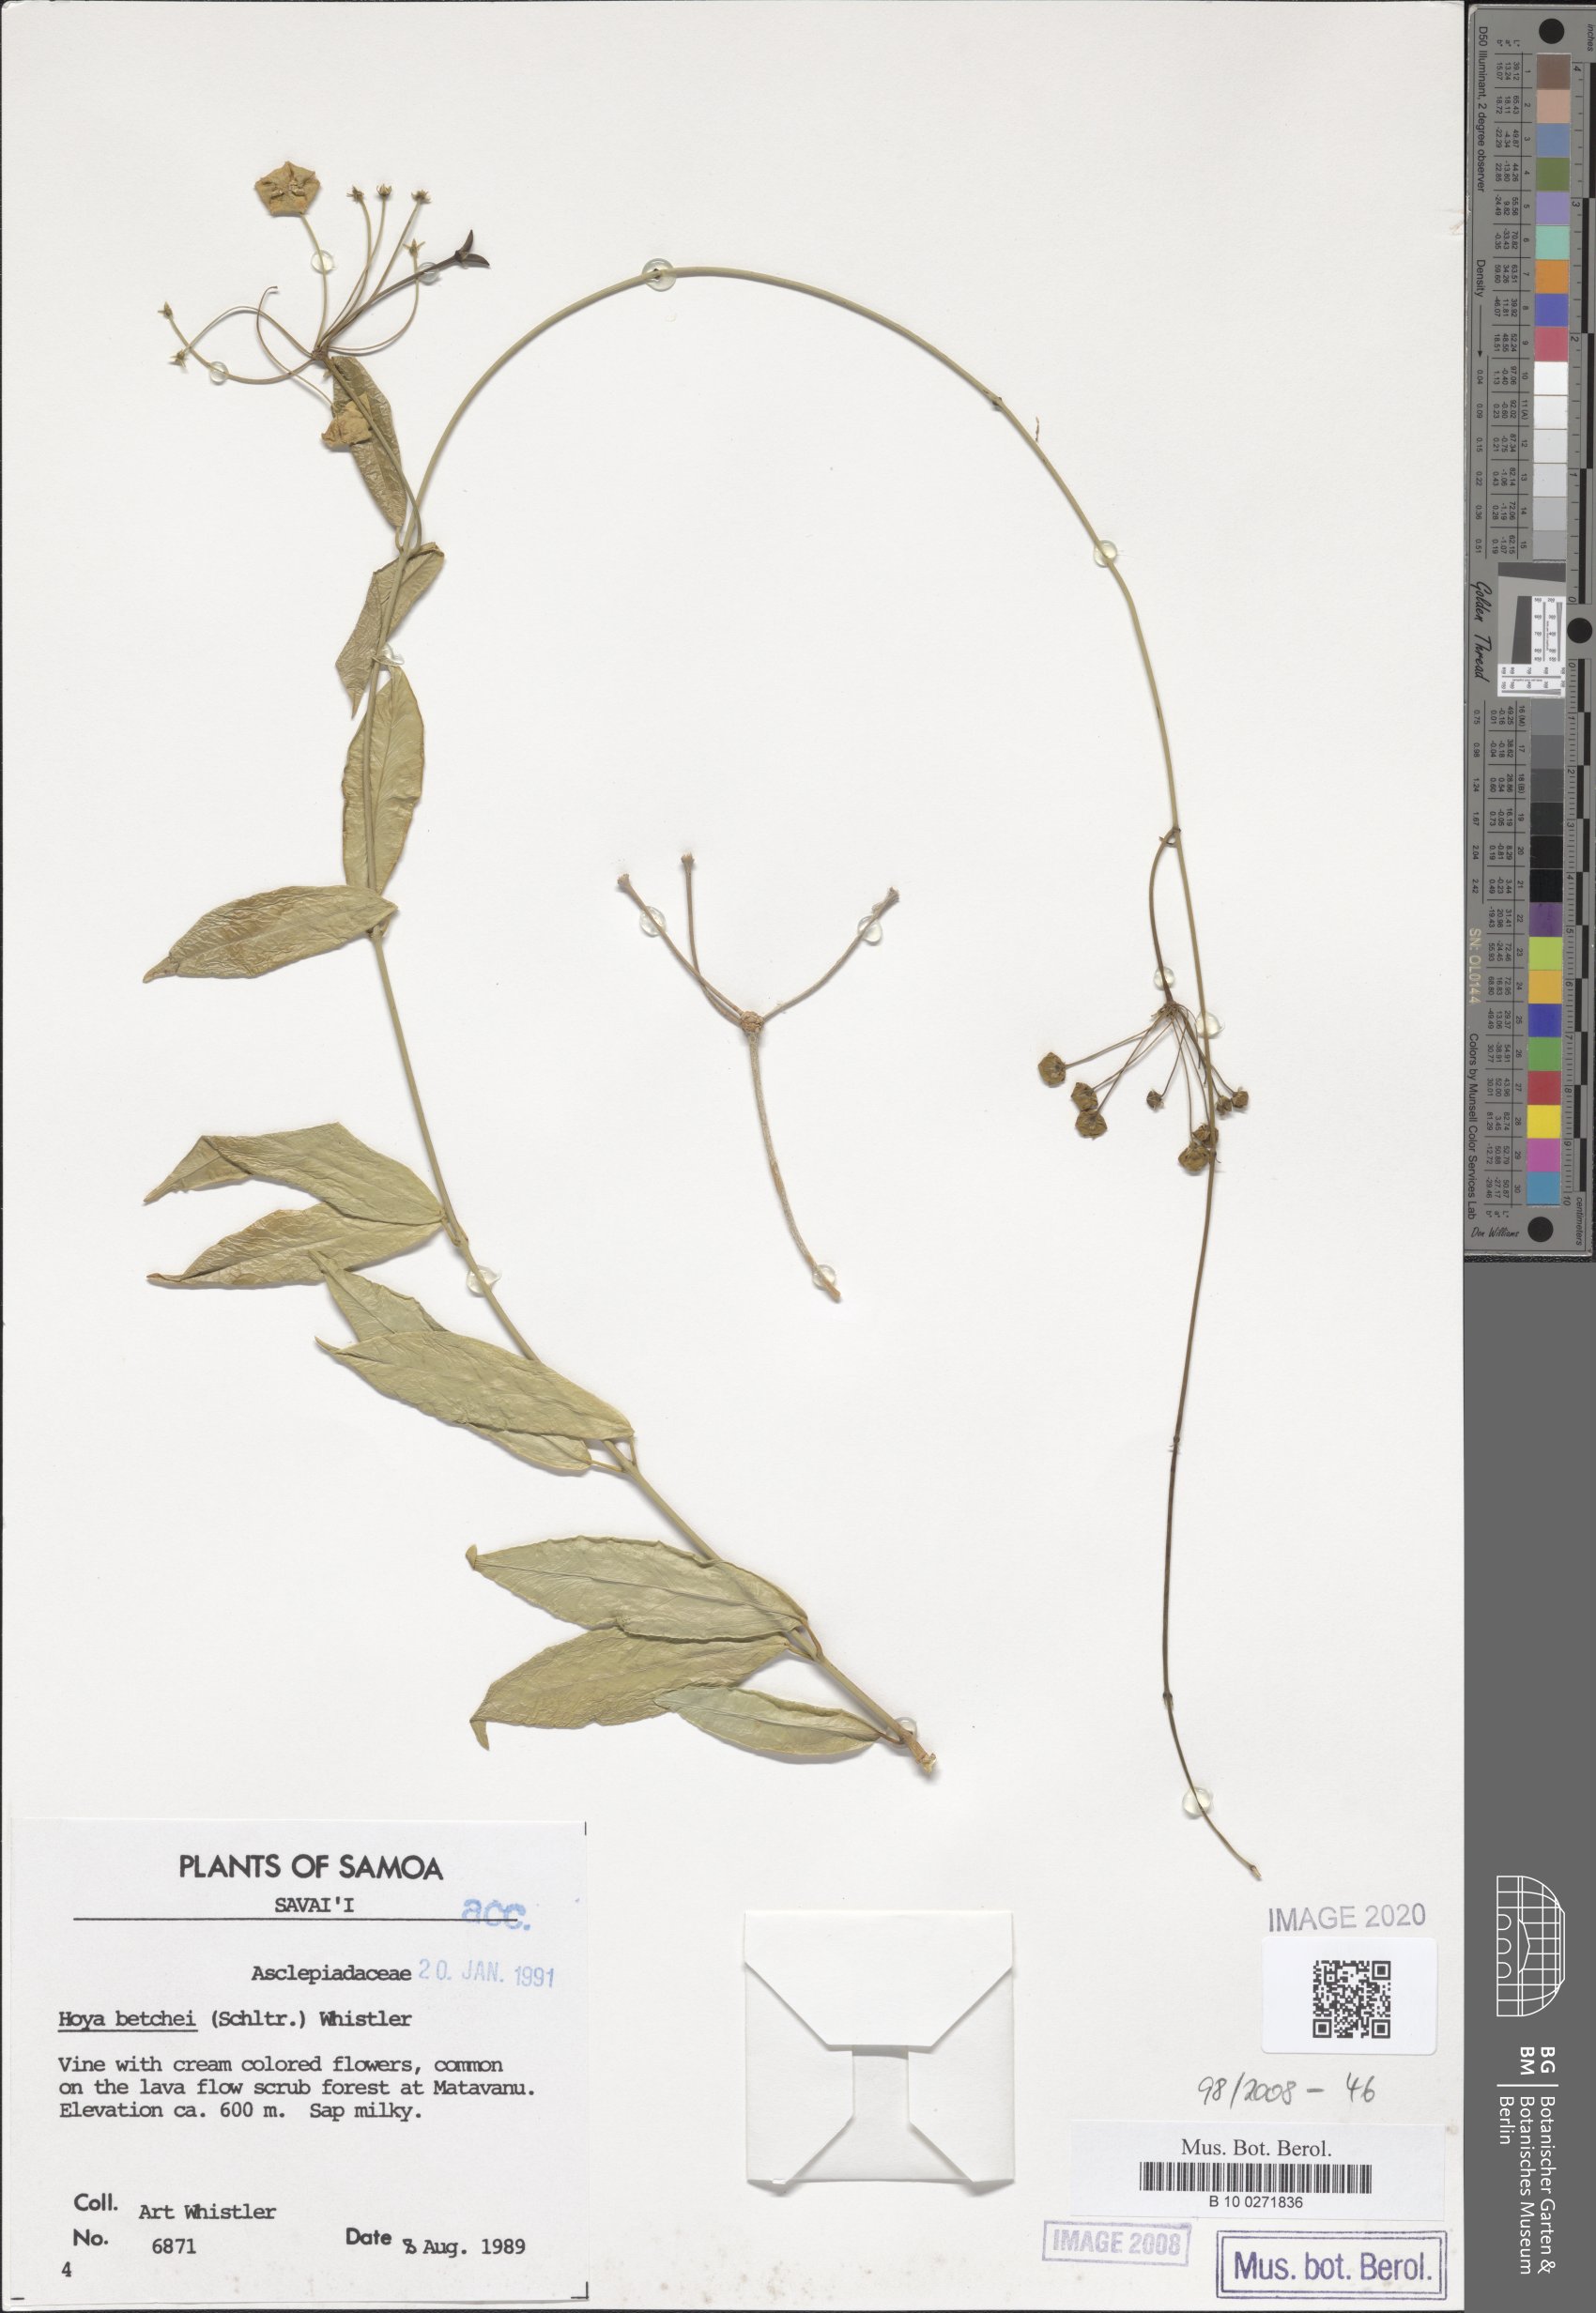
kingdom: Plantae
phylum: Tracheophyta
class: Magnoliopsida
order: Gentianales
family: Apocynaceae
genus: Hoya
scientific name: Hoya betchei
